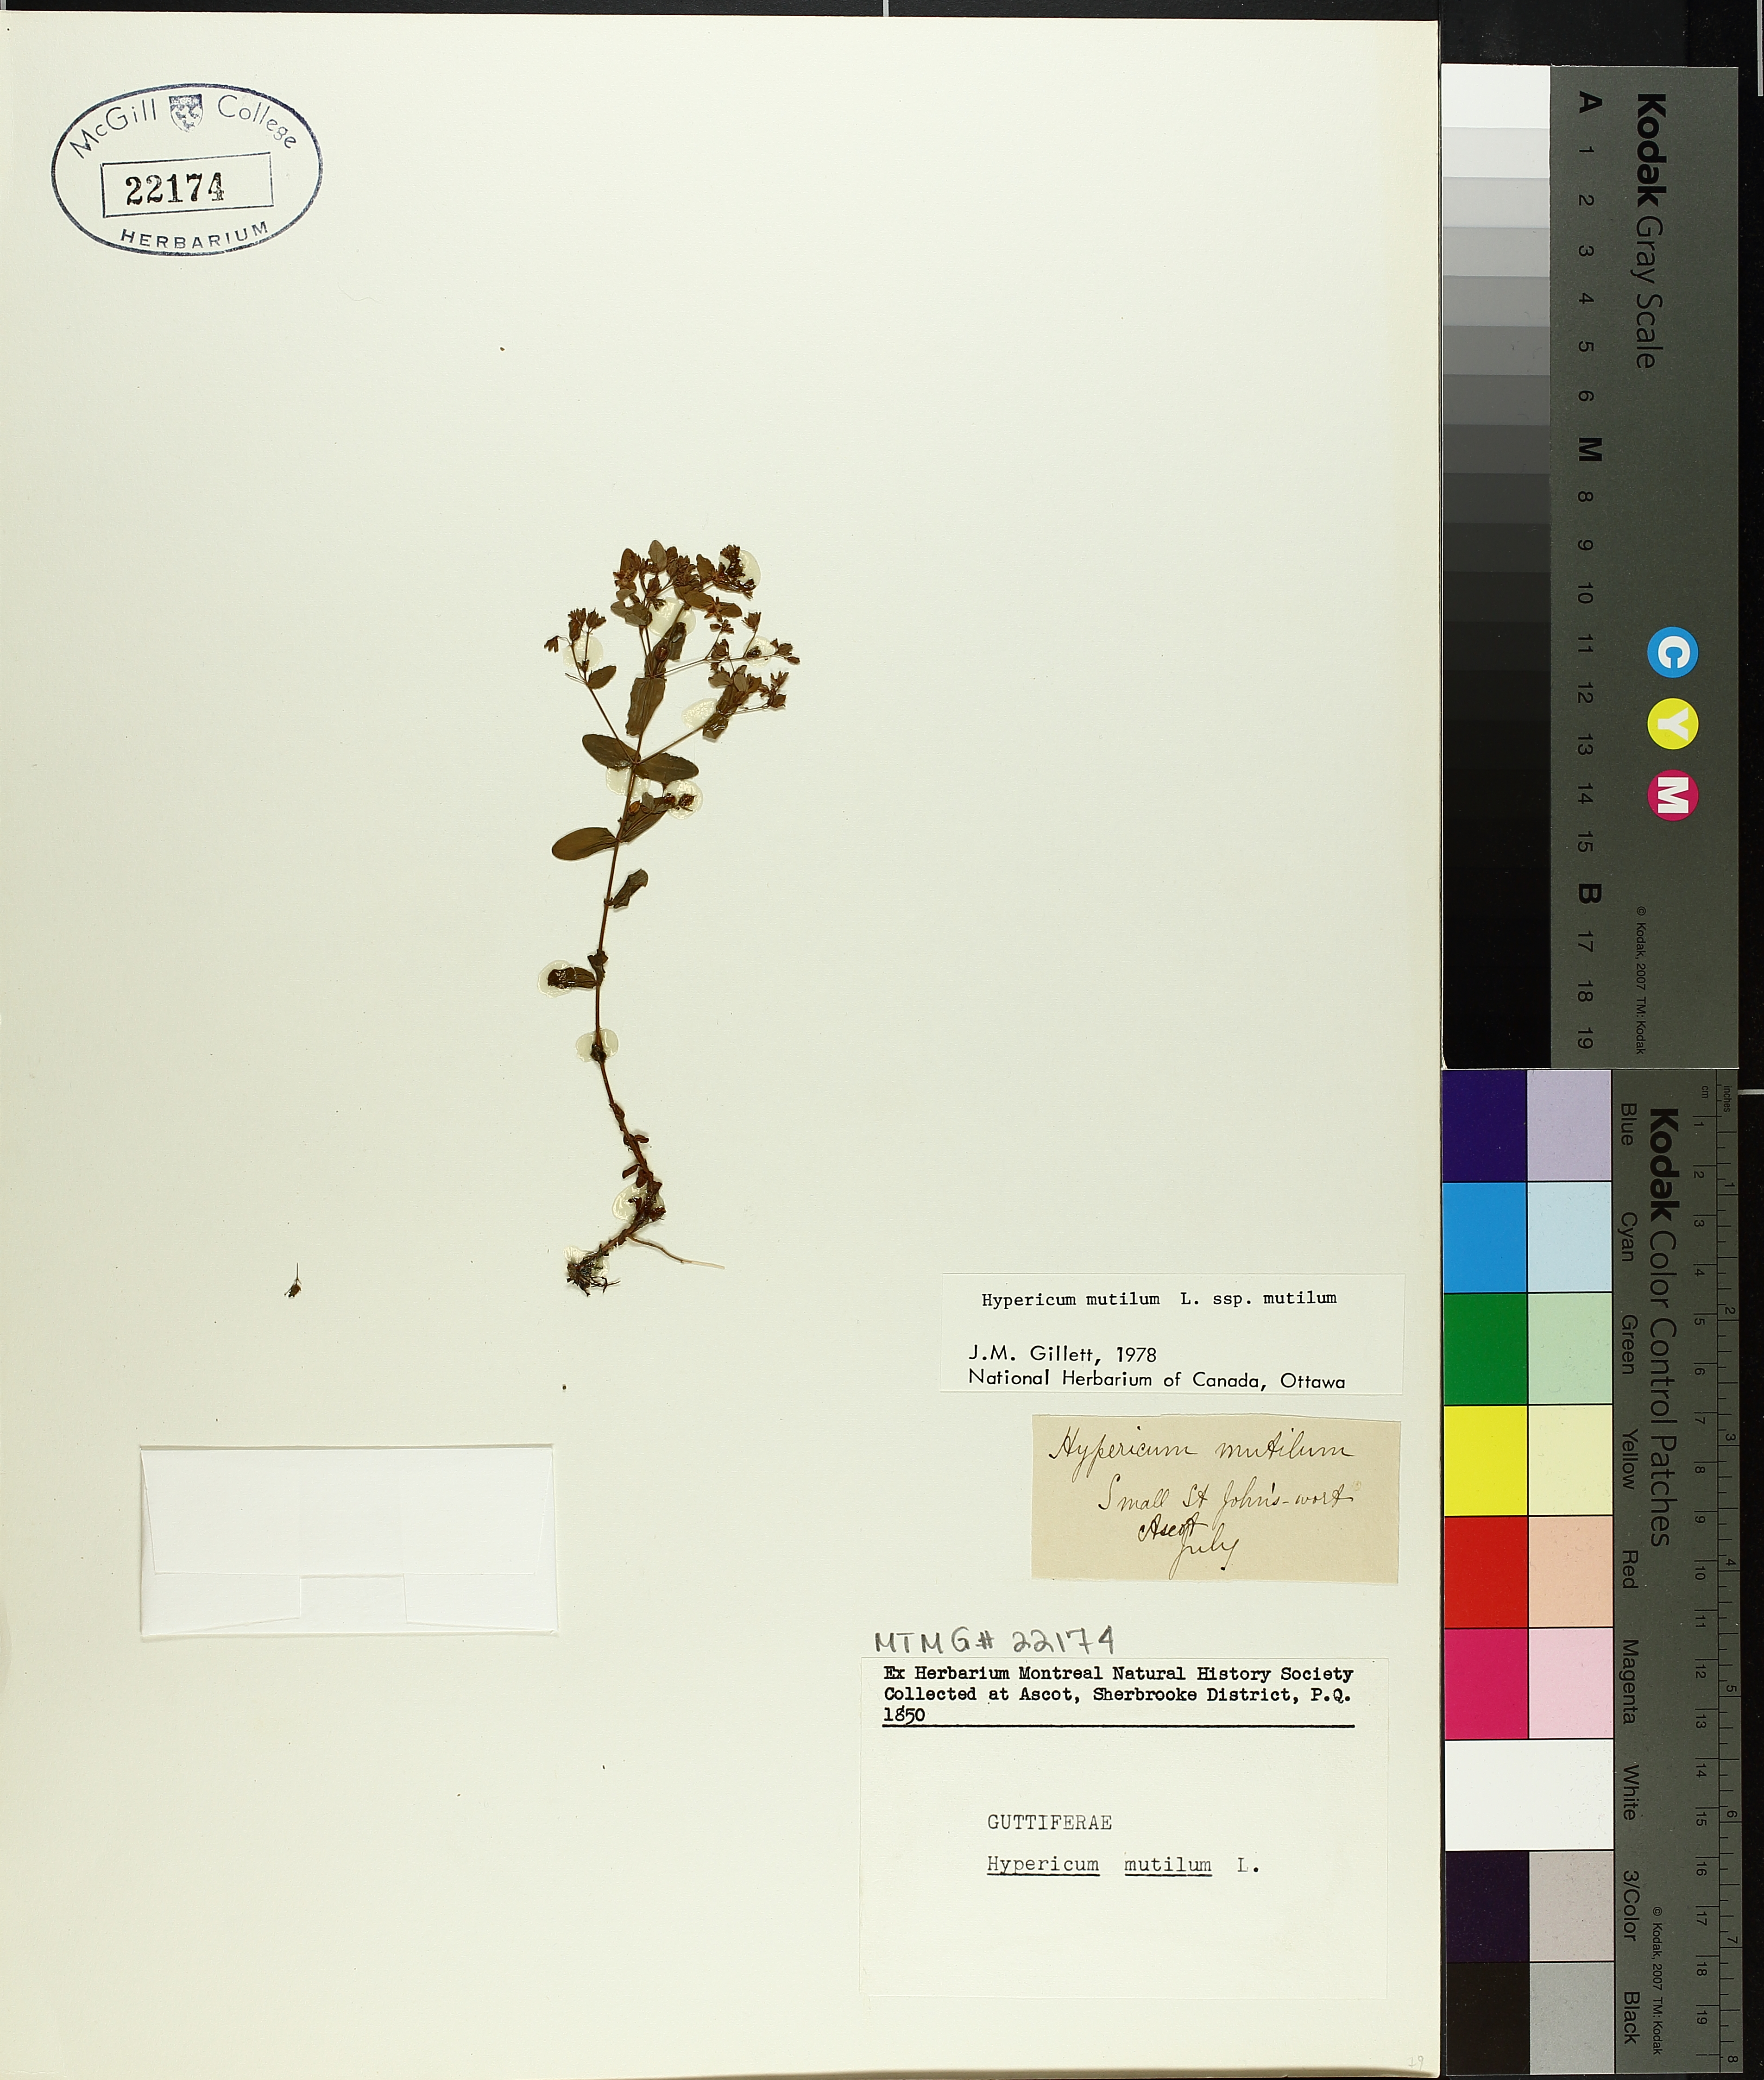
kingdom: Plantae
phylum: Tracheophyta
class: Magnoliopsida
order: Malpighiales
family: Hypericaceae
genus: Hypericum
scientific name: Hypericum mutilum
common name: Dwarf st. john's-wort
